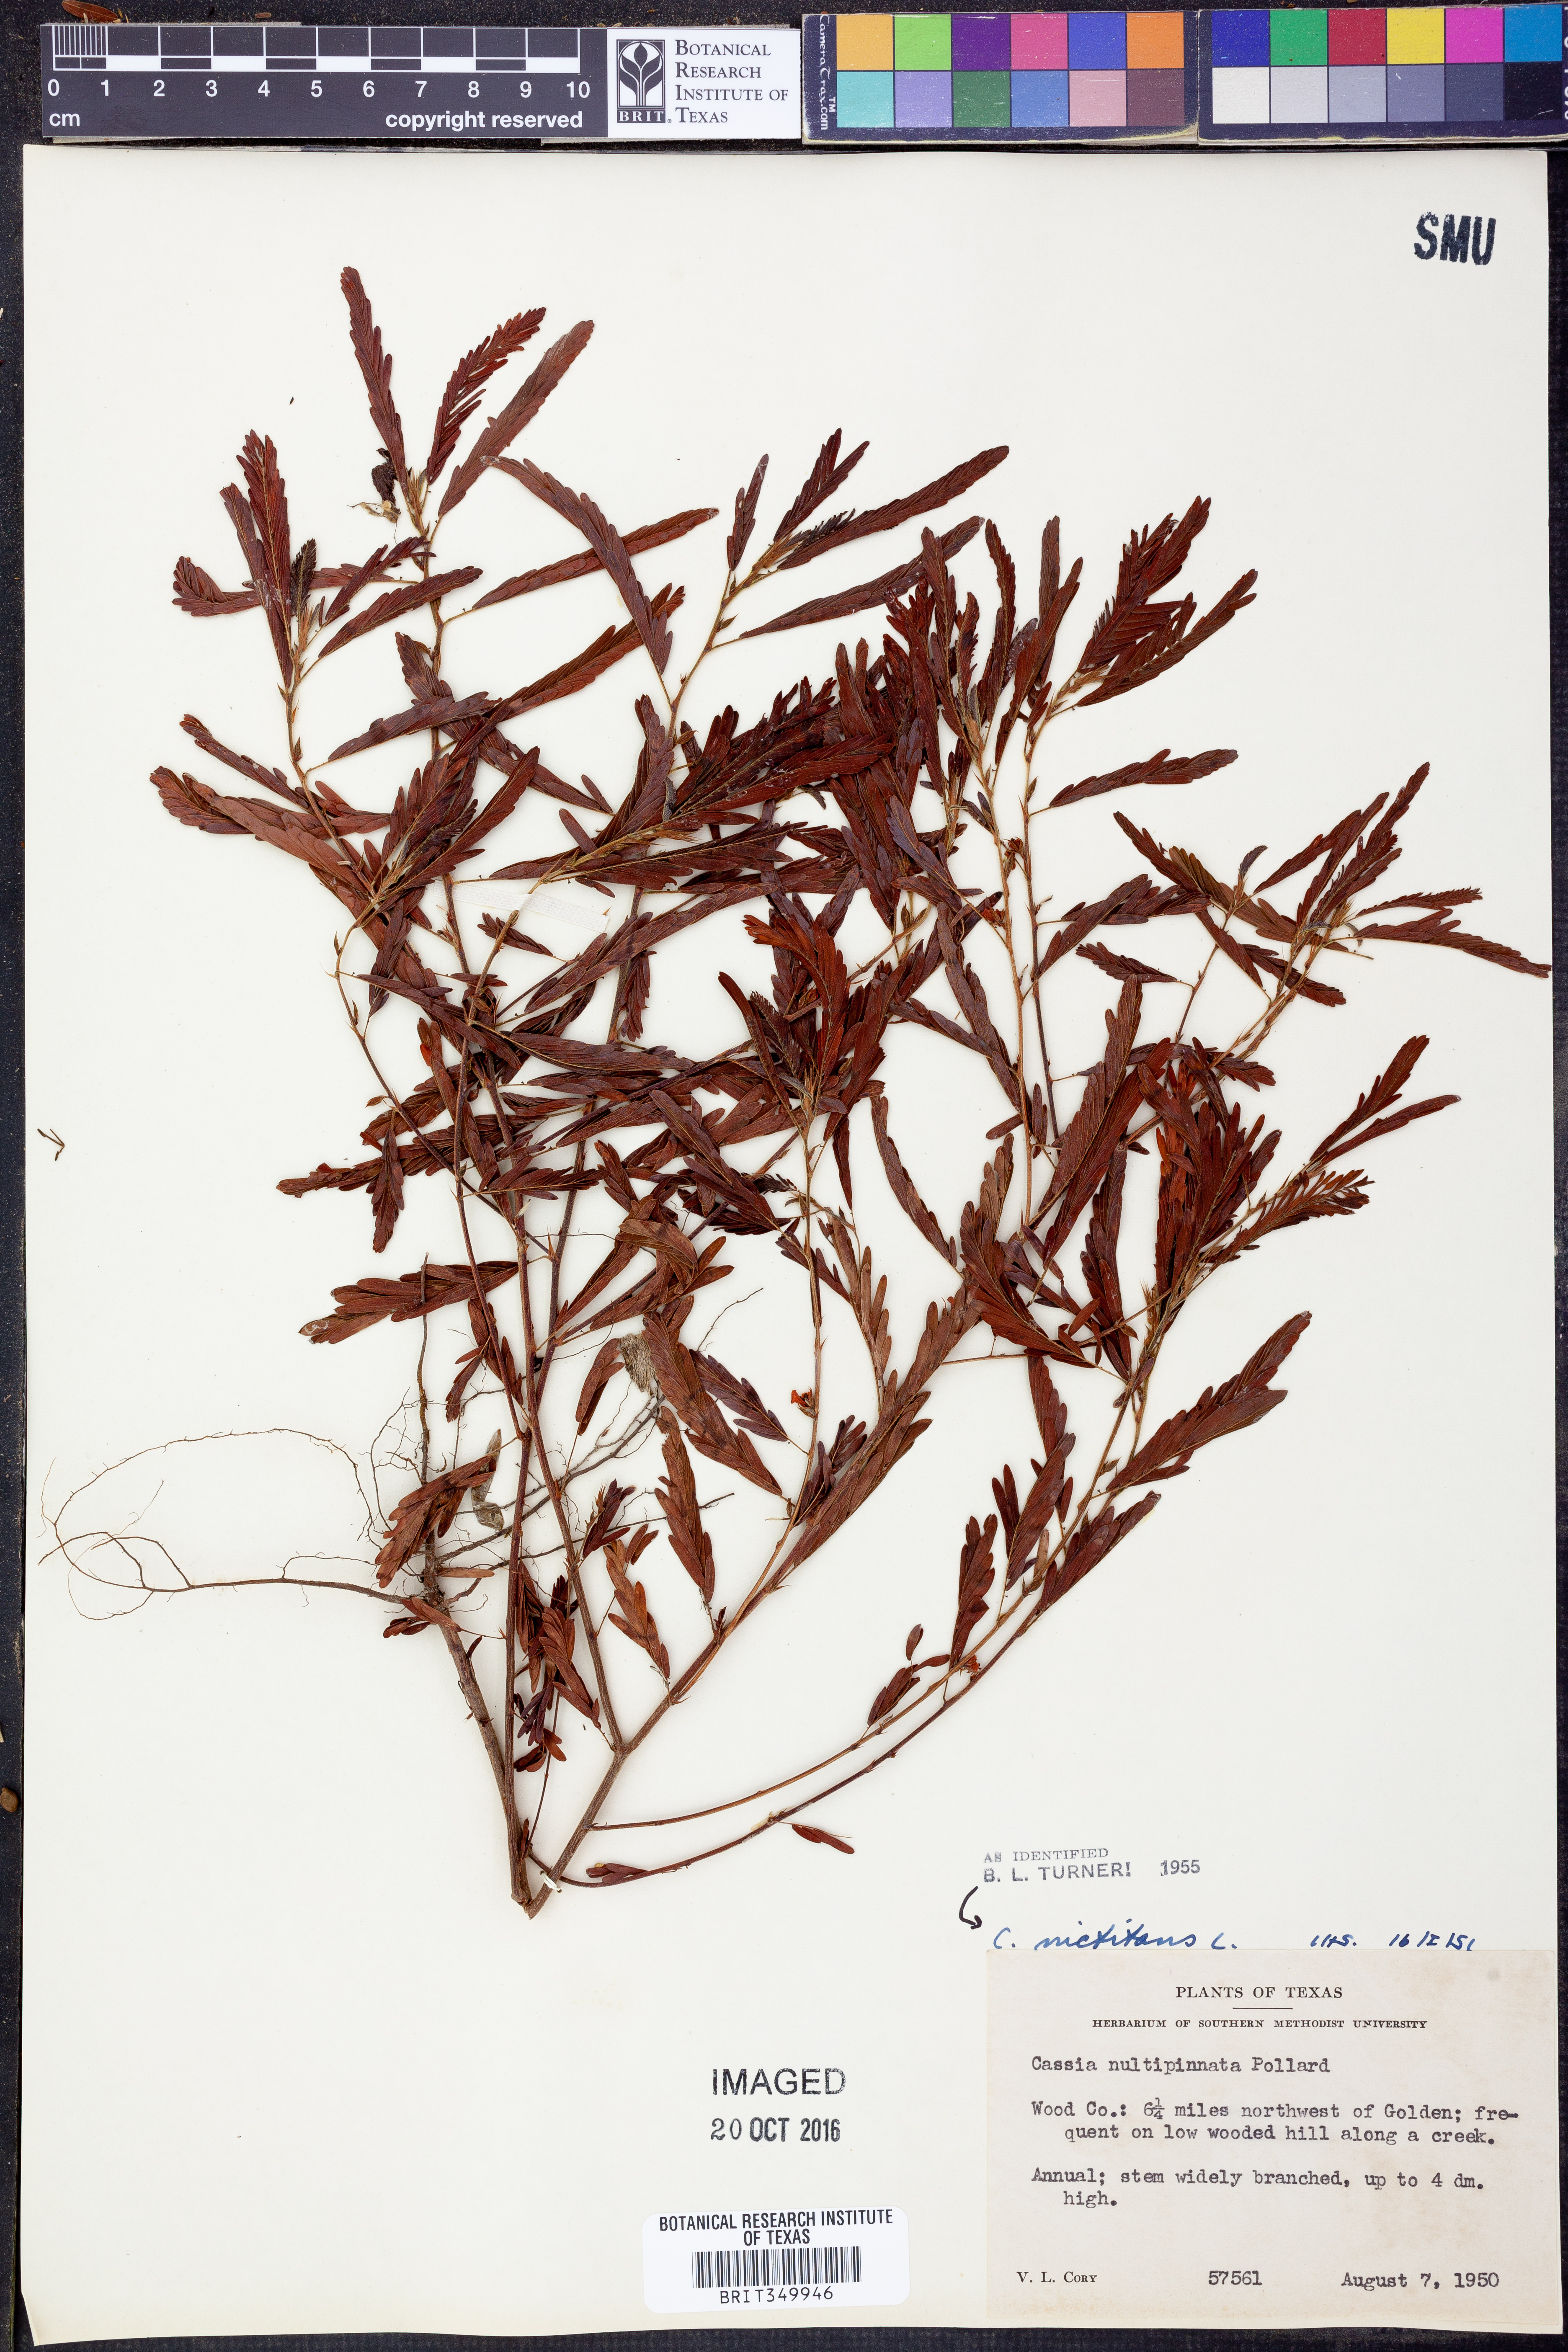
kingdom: Plantae
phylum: Tracheophyta
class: Magnoliopsida
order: Fabales
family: Fabaceae
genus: Chamaecrista
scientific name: Chamaecrista nictitans
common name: Sensitive cassia
